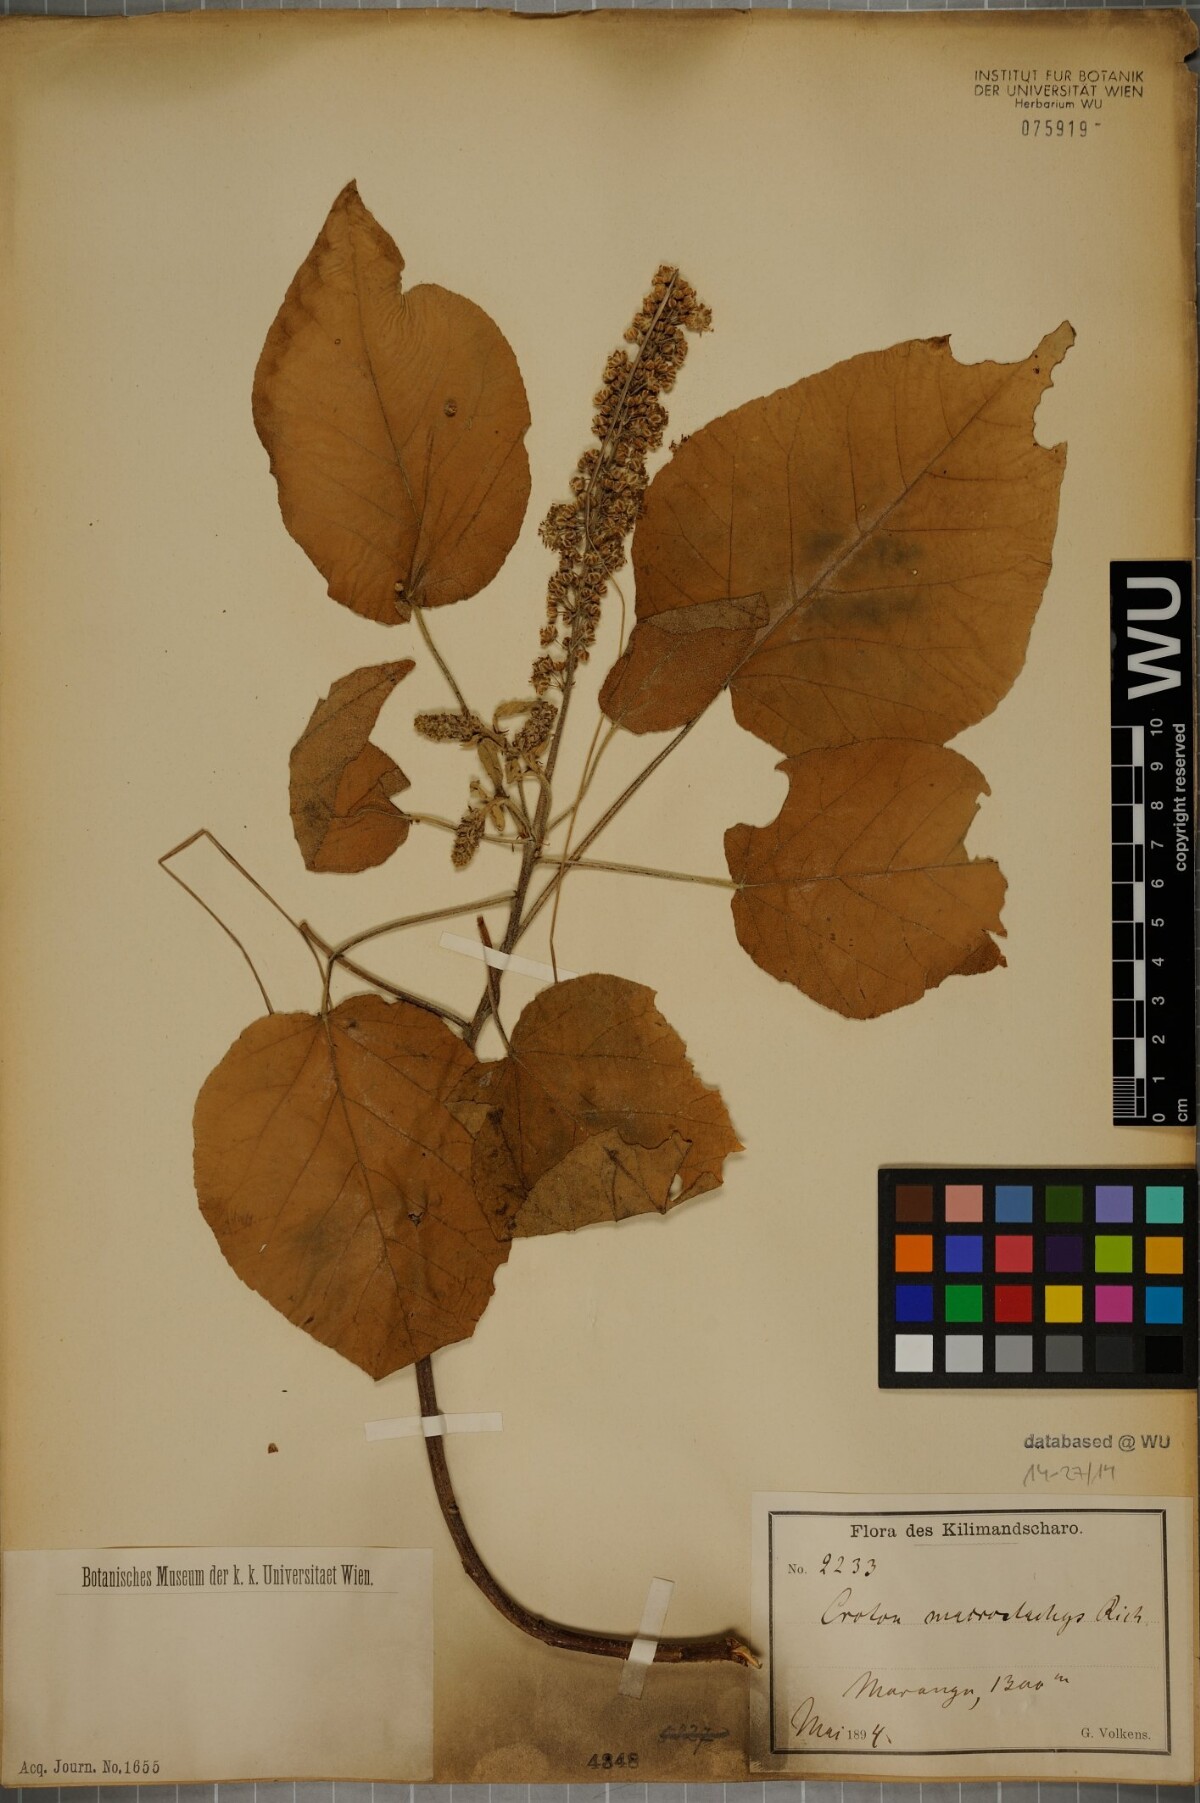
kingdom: Plantae
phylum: Tracheophyta
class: Magnoliopsida
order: Malpighiales
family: Euphorbiaceae
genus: Croton
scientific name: Croton macrostachys
